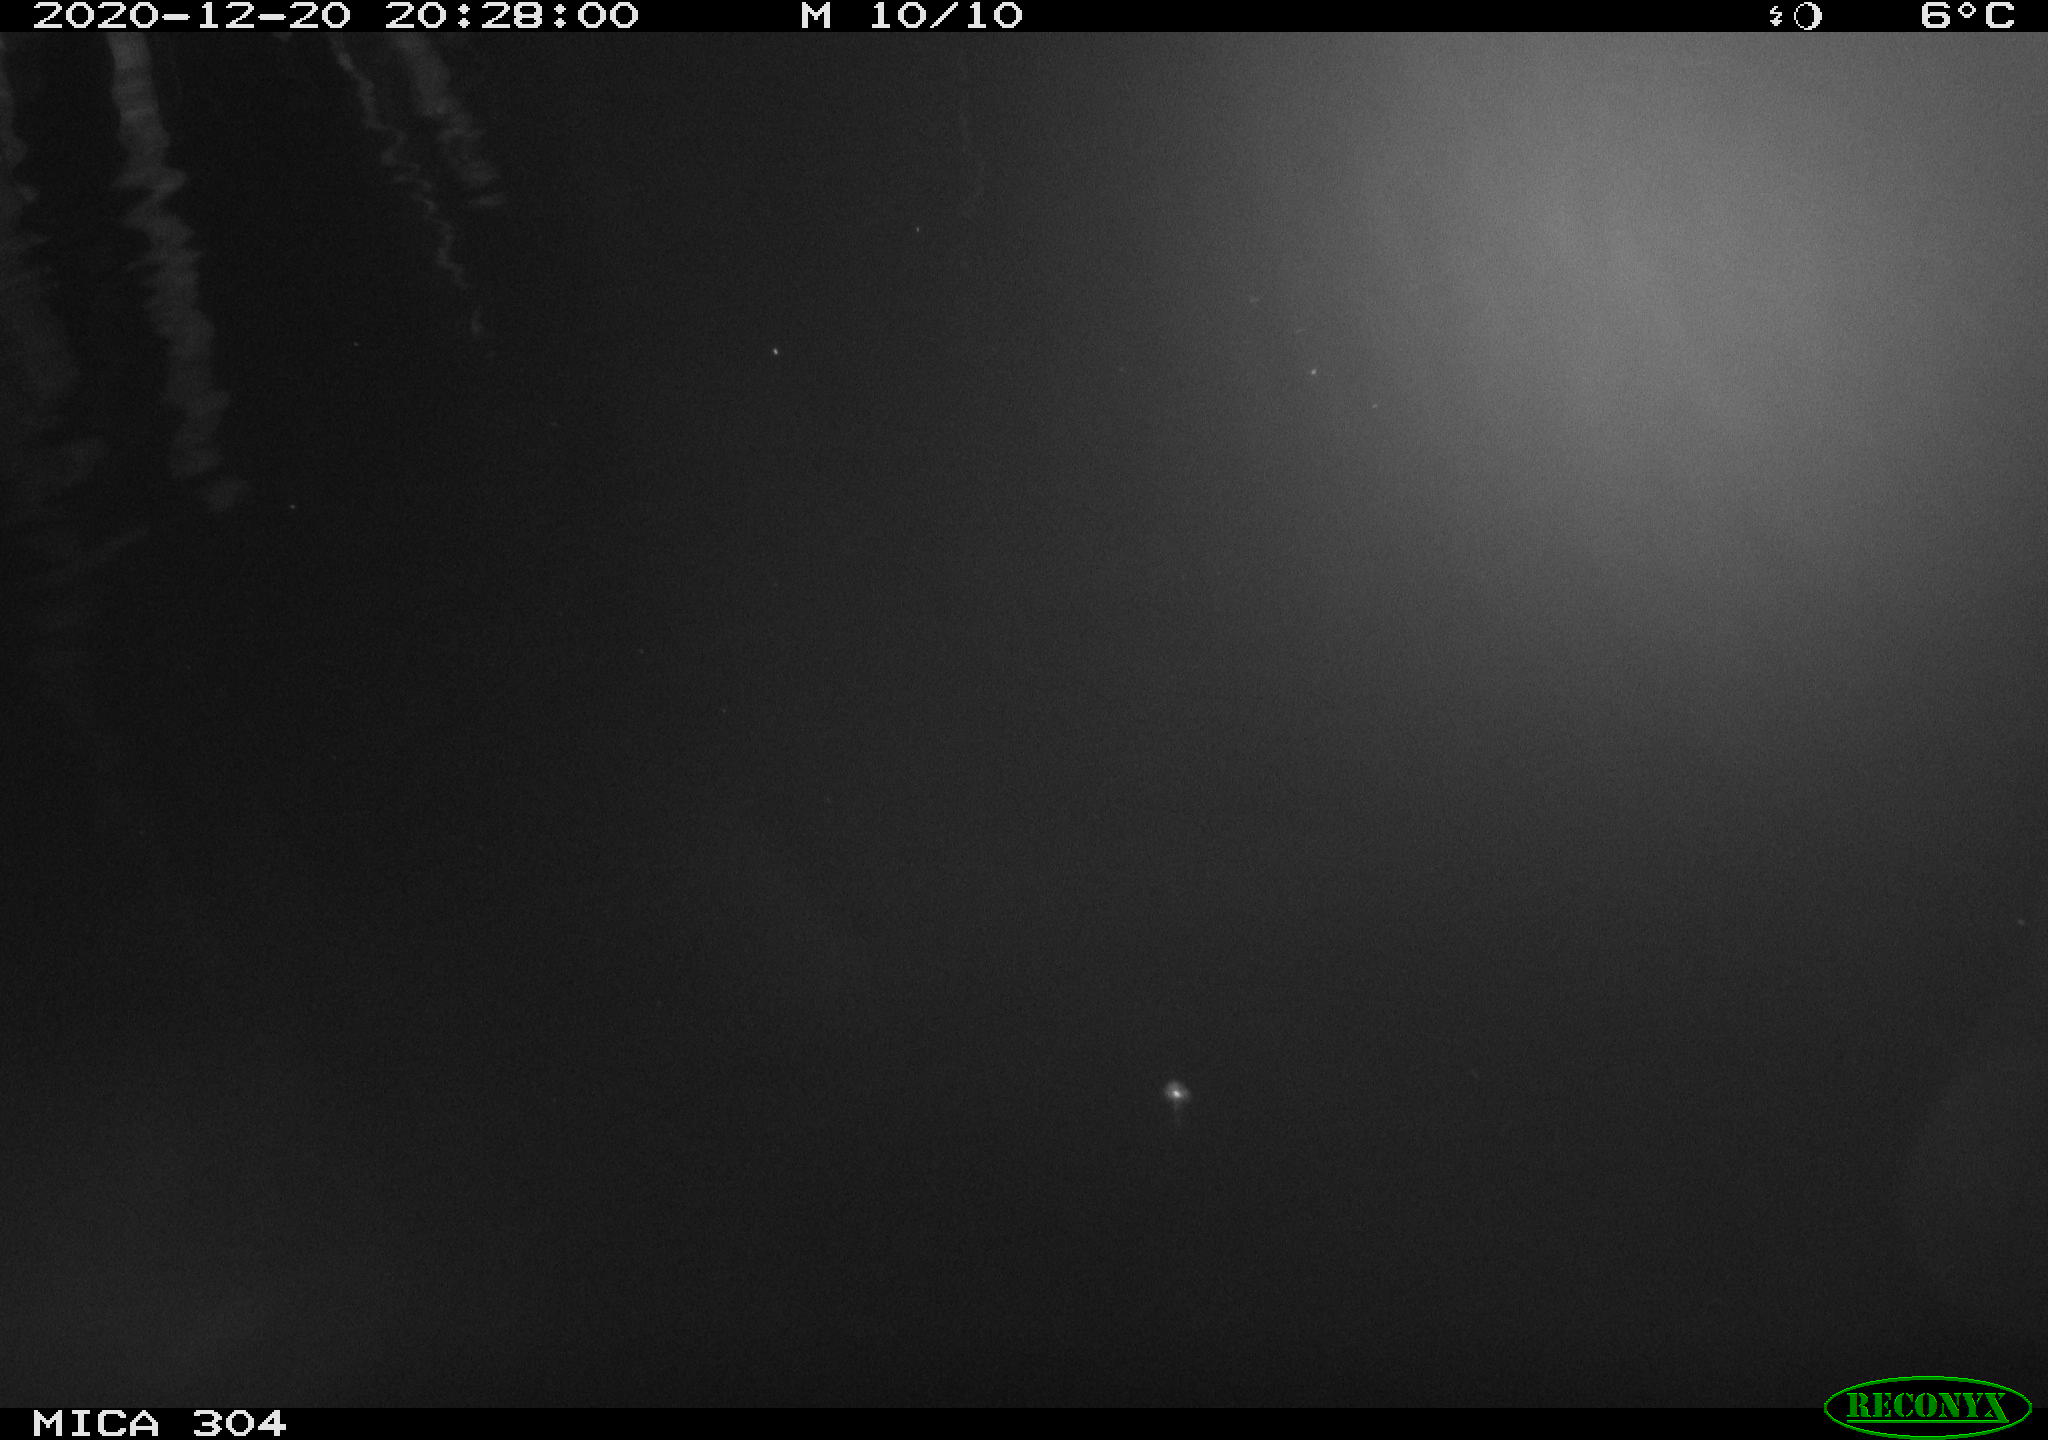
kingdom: Animalia
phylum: Chordata
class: Aves
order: Anseriformes
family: Anatidae
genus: Anas
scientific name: Anas platyrhynchos
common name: Mallard
